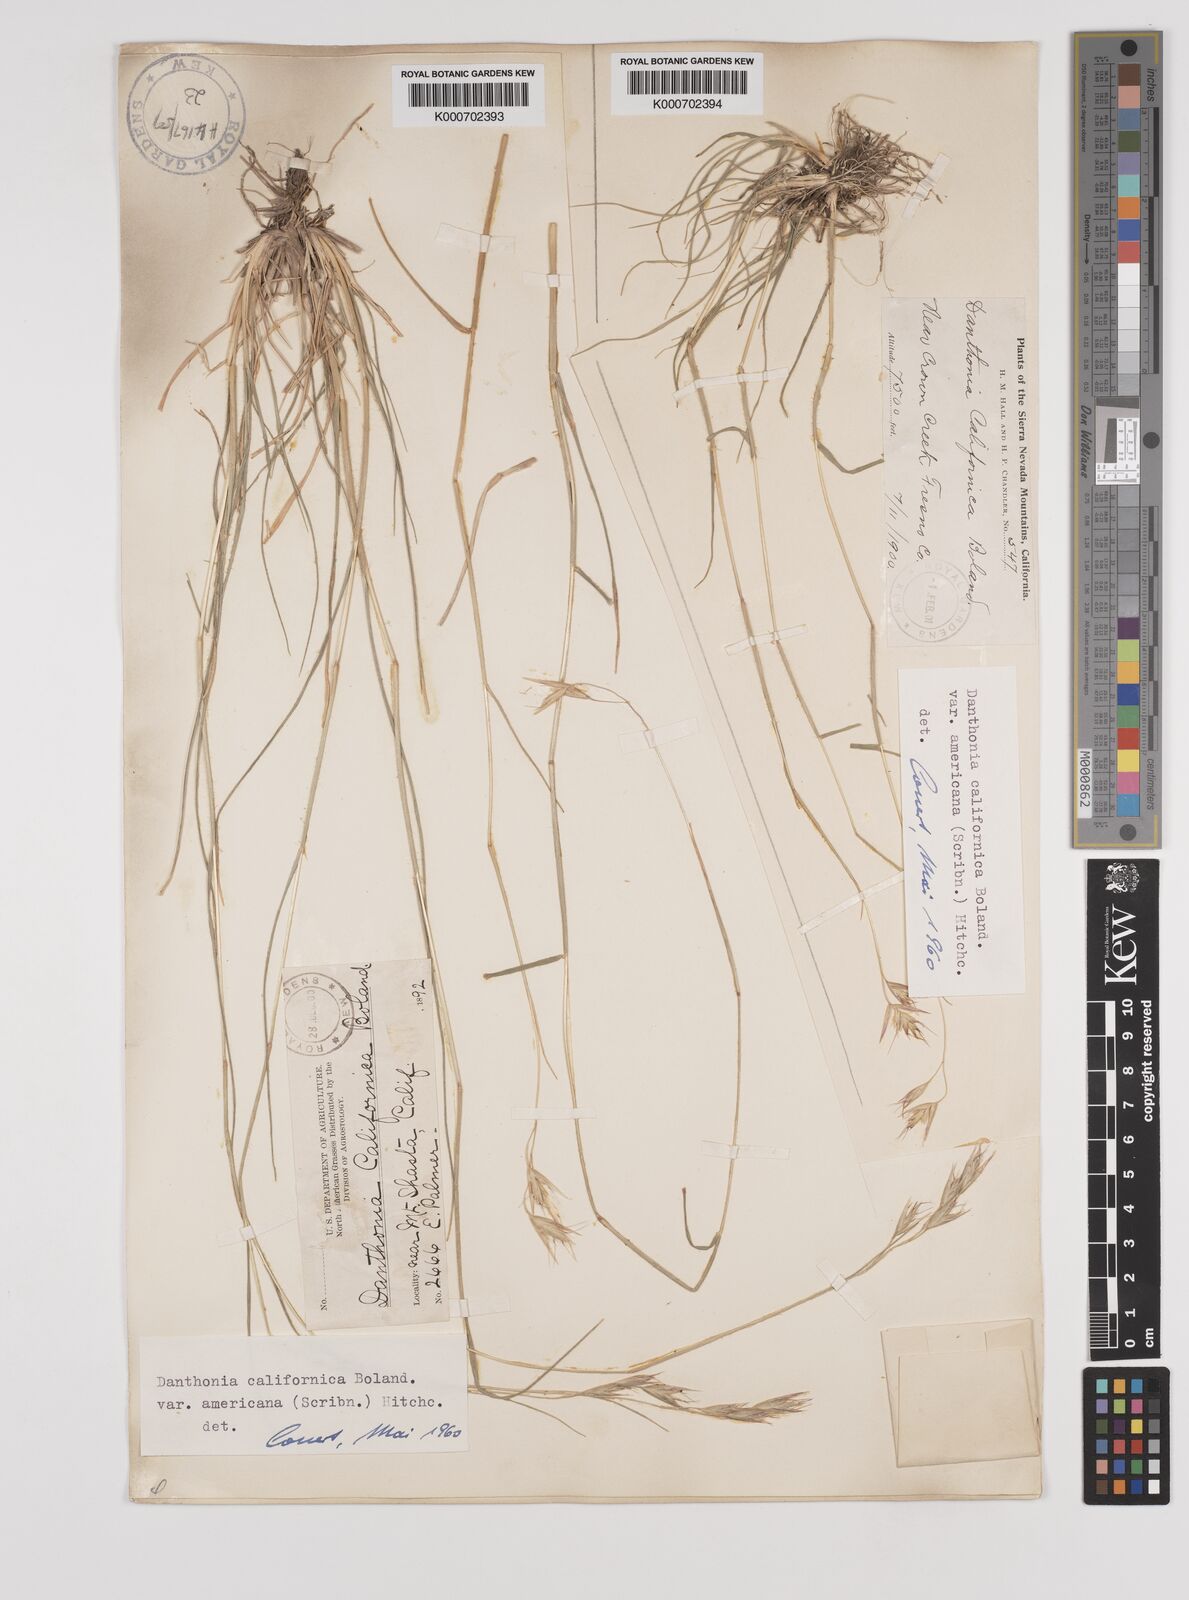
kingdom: Plantae
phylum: Tracheophyta
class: Liliopsida
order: Poales
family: Poaceae
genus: Danthonia
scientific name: Danthonia californica
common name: California oat grass
